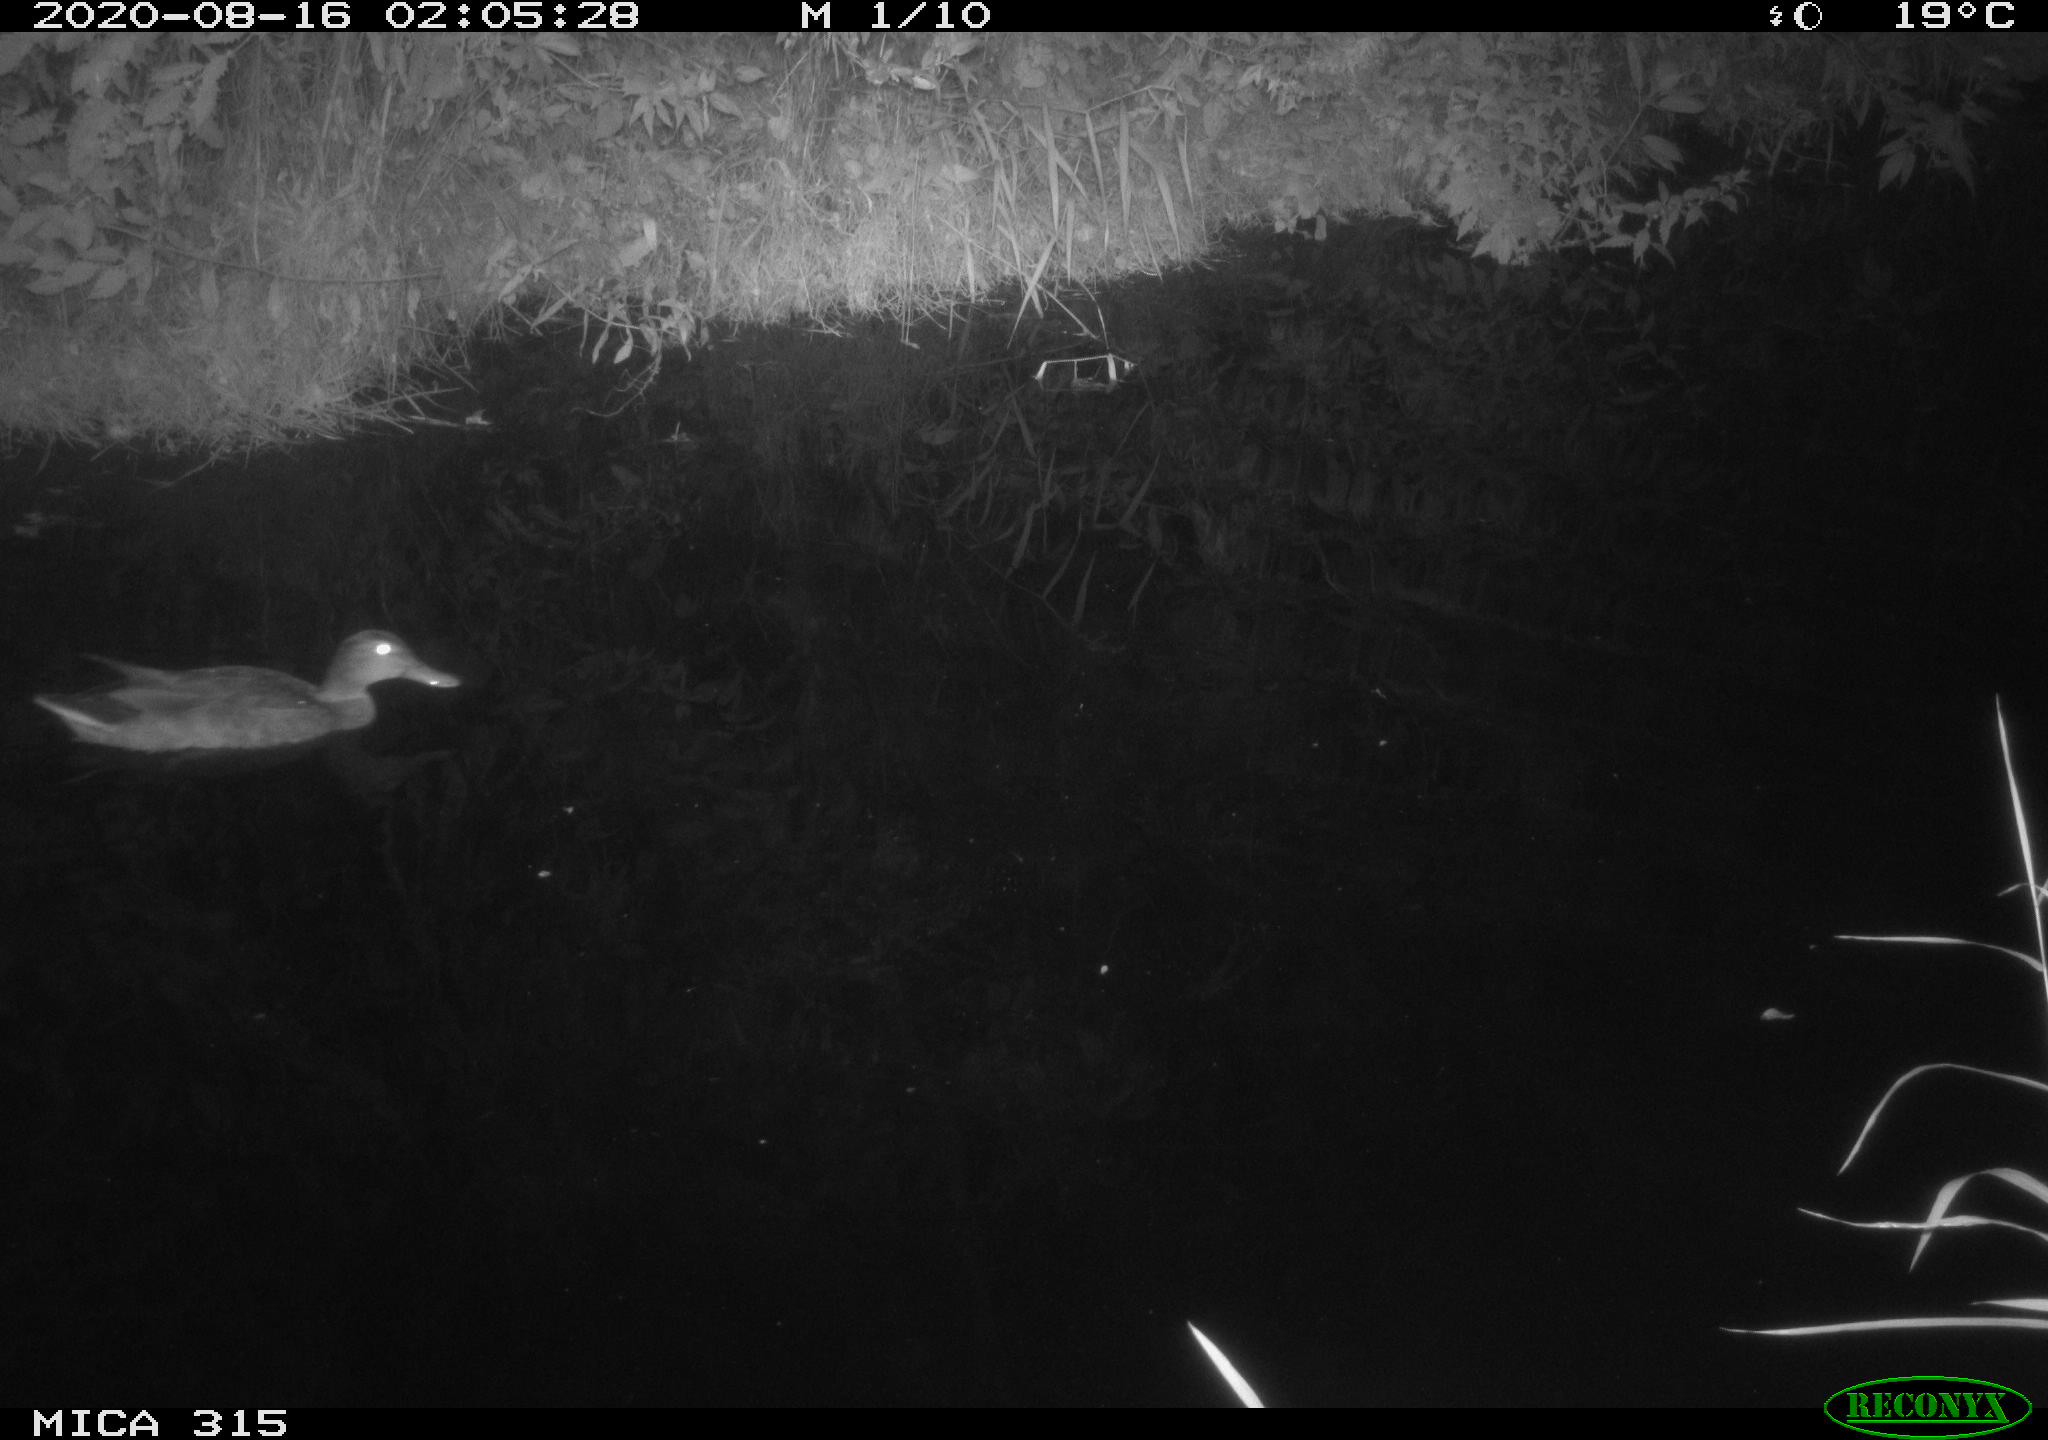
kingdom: Animalia
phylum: Chordata
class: Aves
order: Anseriformes
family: Anatidae
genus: Anas
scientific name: Anas platyrhynchos
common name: Mallard
